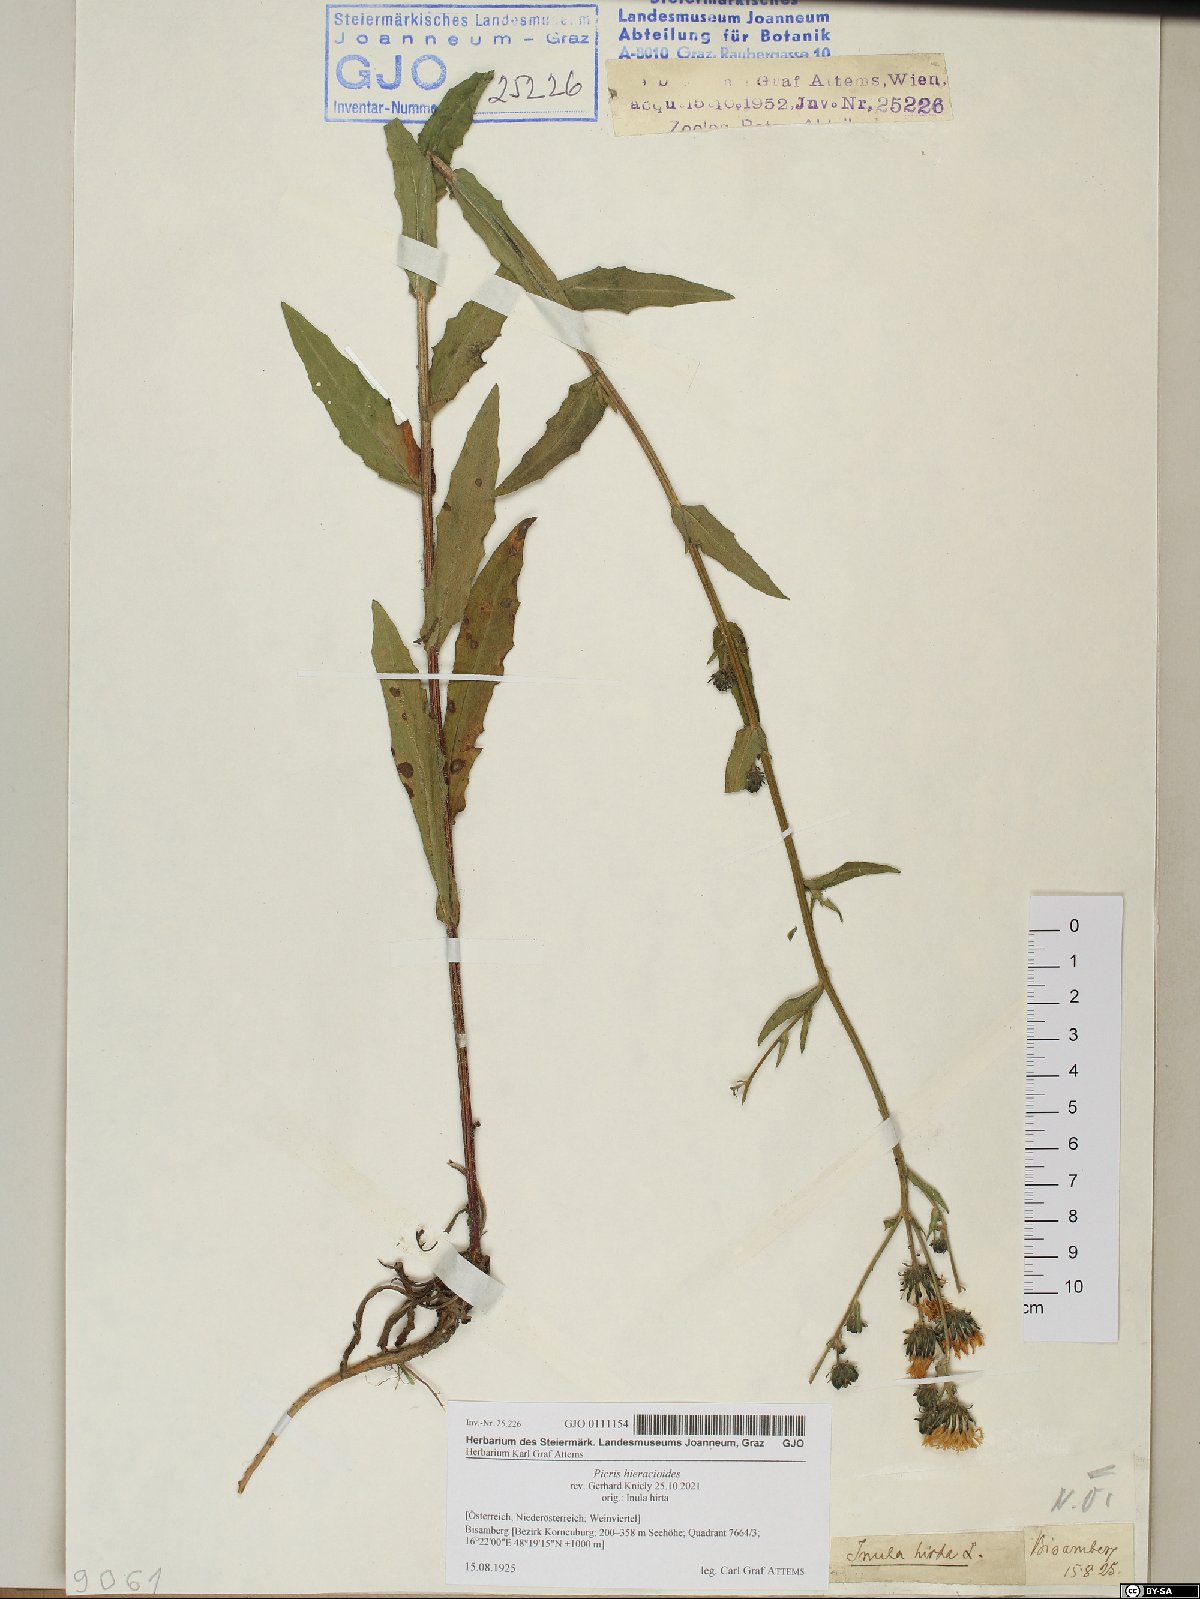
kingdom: Plantae
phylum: Tracheophyta
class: Magnoliopsida
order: Asterales
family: Asteraceae
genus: Picris
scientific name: Picris hieracioides
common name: Hawkweed oxtongue
